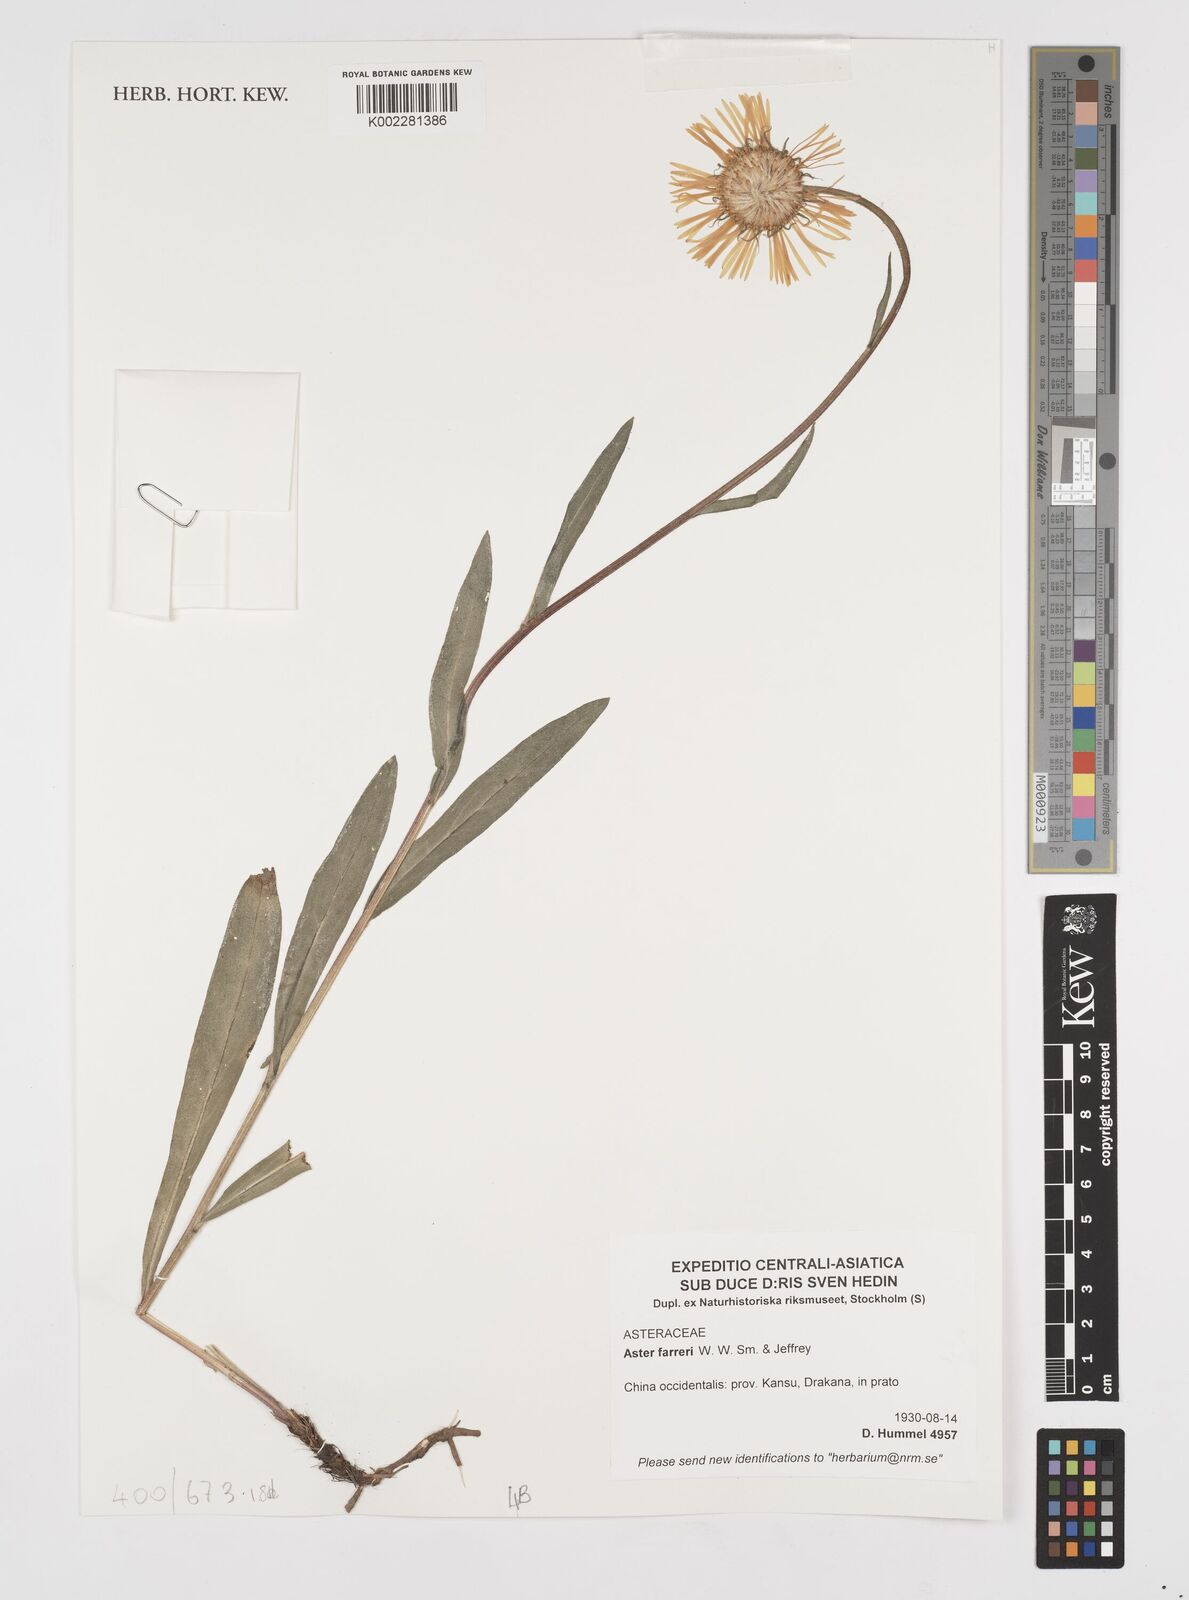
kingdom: Plantae
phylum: Tracheophyta
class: Magnoliopsida
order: Asterales
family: Asteraceae
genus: Tibetiodes
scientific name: Tibetiodes farreri
